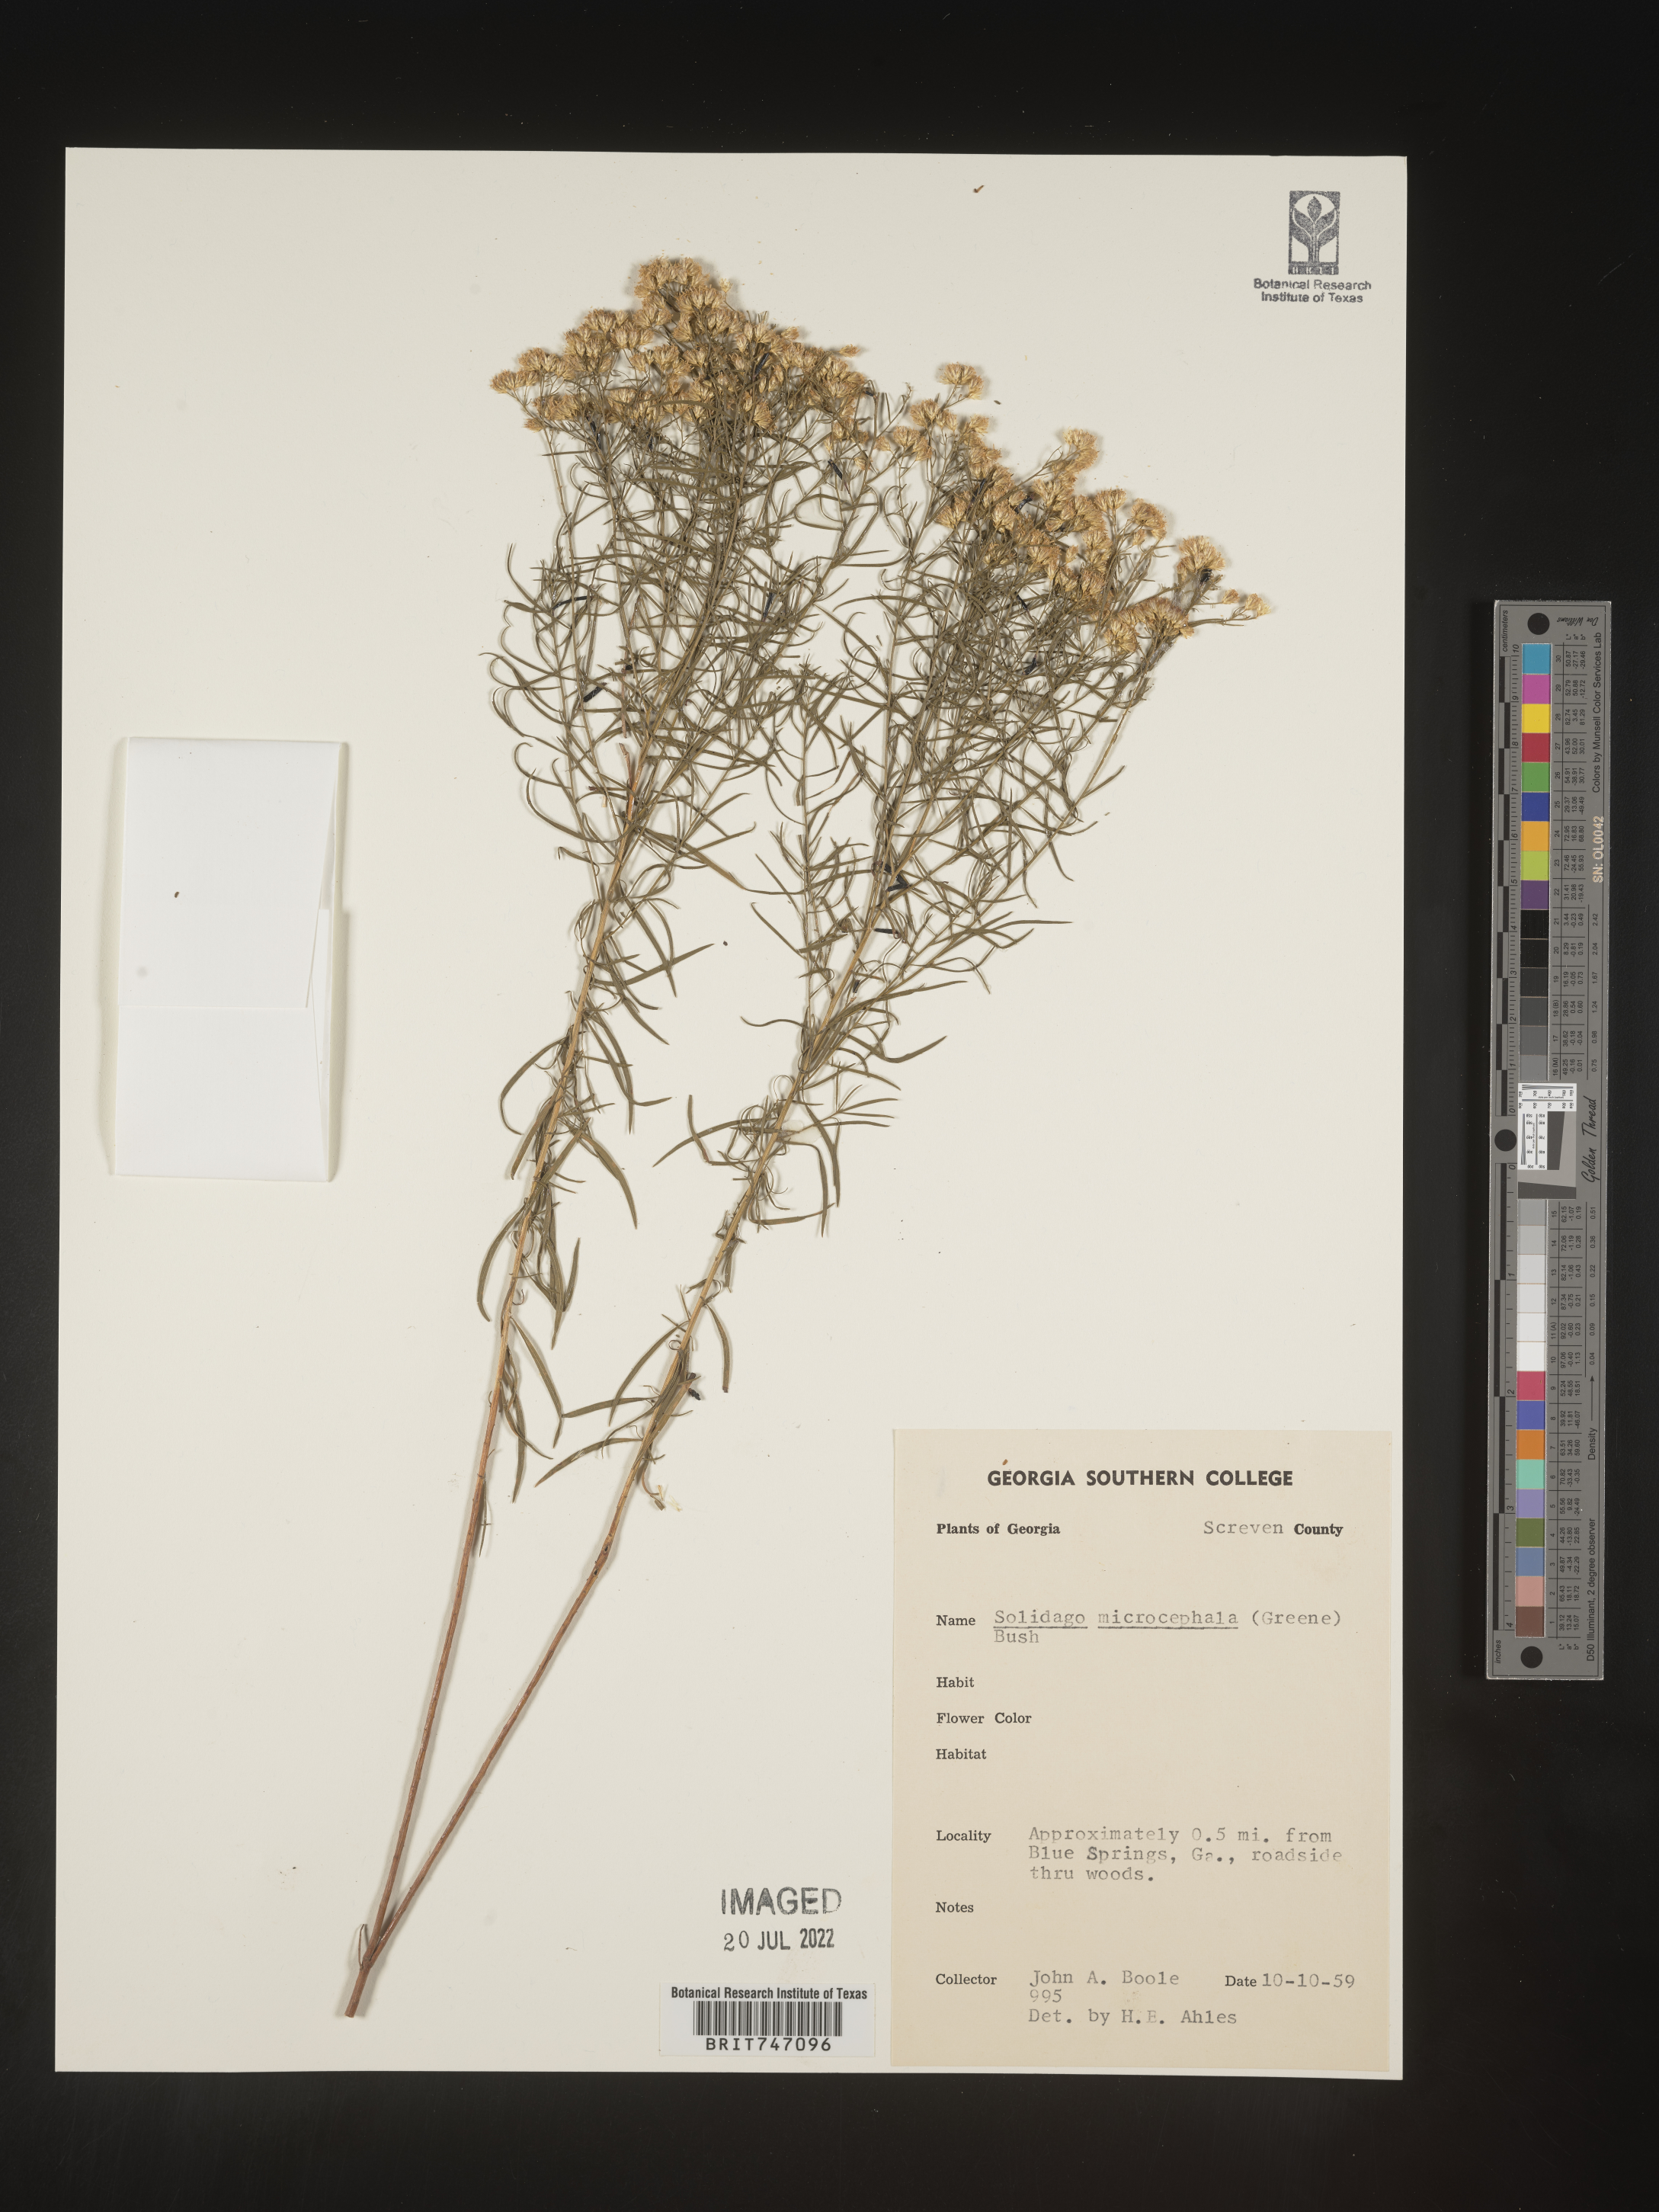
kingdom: Plantae
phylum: Tracheophyta
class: Magnoliopsida
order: Asterales
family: Asteraceae
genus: Euthamia
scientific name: Euthamia caroliniana
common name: Coastal plain goldentop
